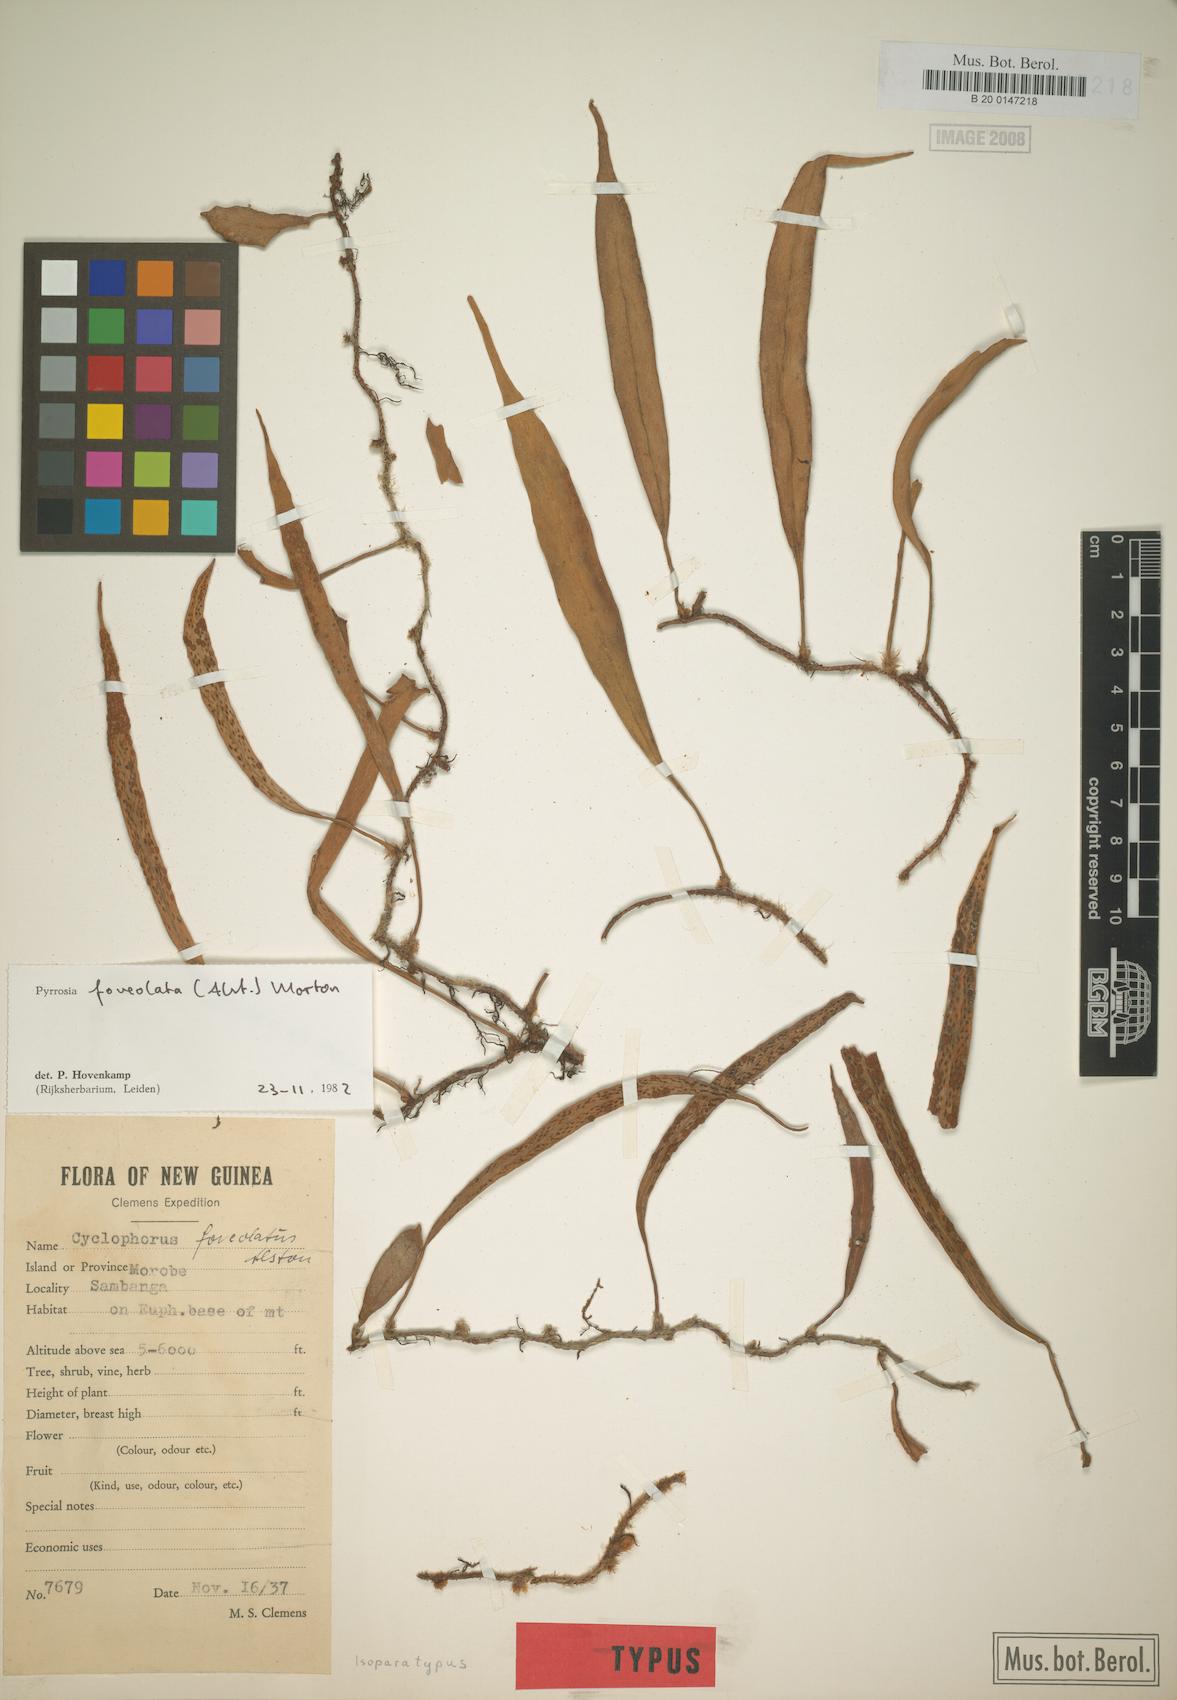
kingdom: Plantae
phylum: Tracheophyta
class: Polypodiopsida
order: Polypodiales
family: Polypodiaceae
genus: Pyrrosia
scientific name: Pyrrosia foveolata
